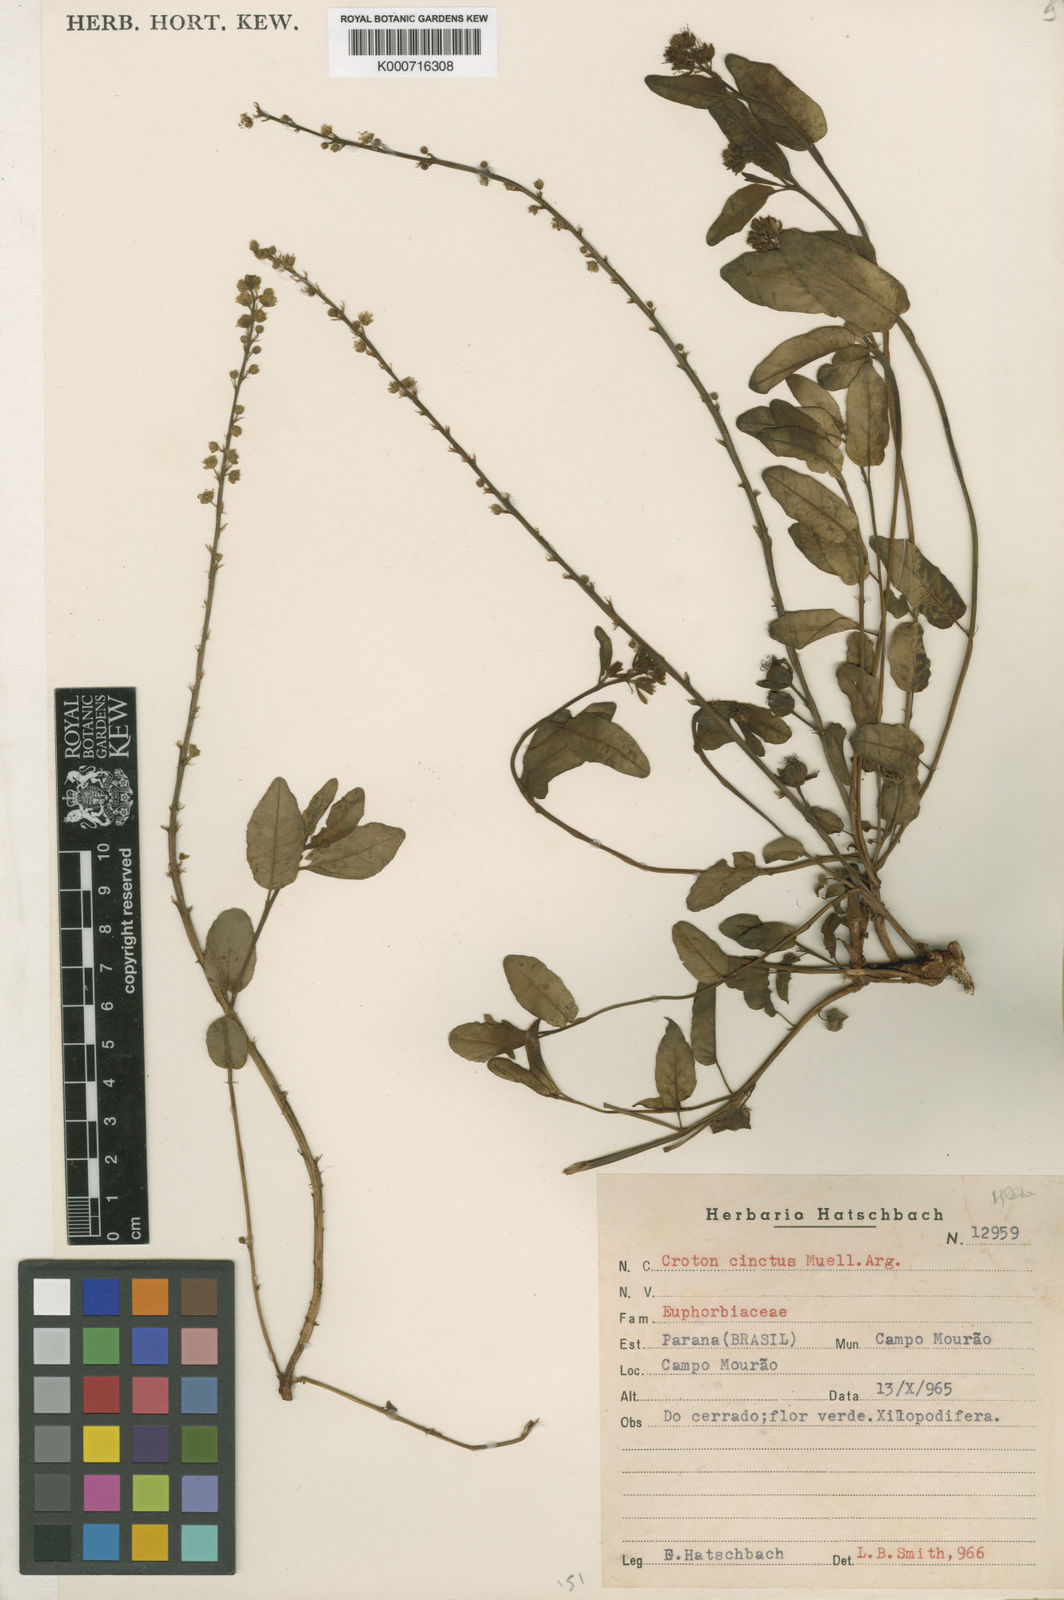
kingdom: Plantae
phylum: Tracheophyta
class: Magnoliopsida
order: Malpighiales
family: Euphorbiaceae
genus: Astraea
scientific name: Astraea
